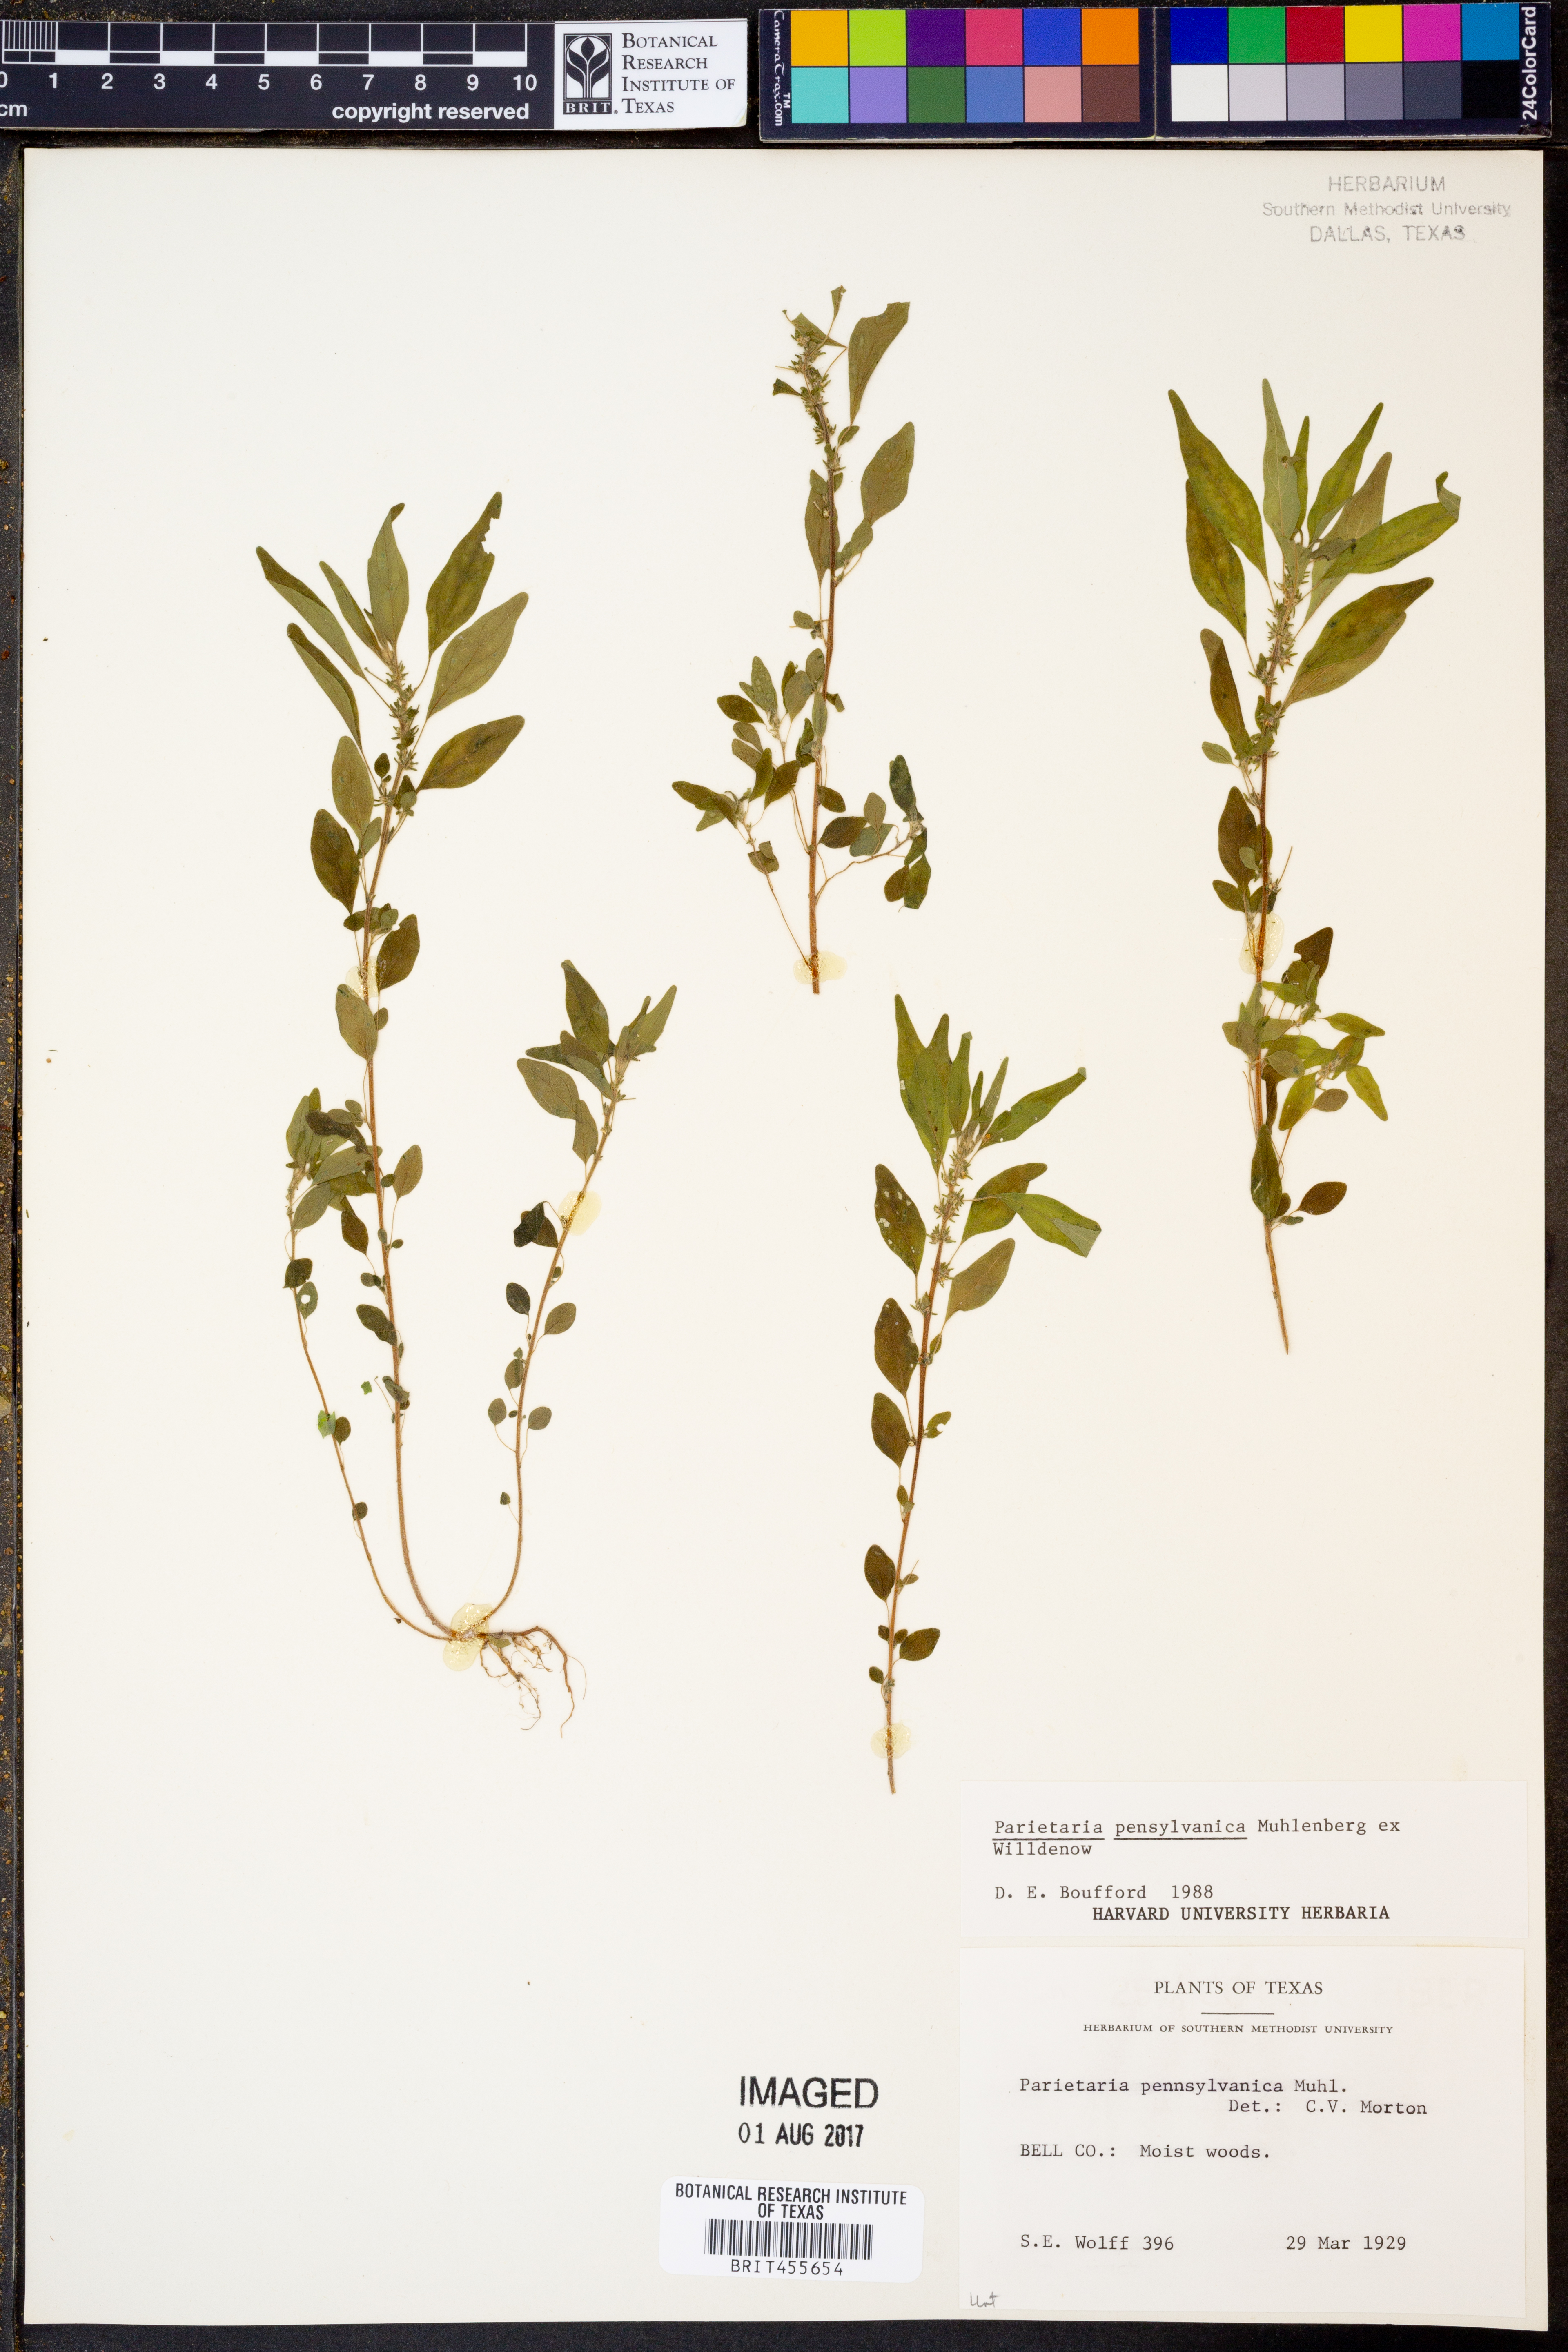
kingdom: Plantae
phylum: Tracheophyta
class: Magnoliopsida
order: Rosales
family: Urticaceae
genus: Parietaria
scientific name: Parietaria pensylvanica
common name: Pennsylvania pellitory
